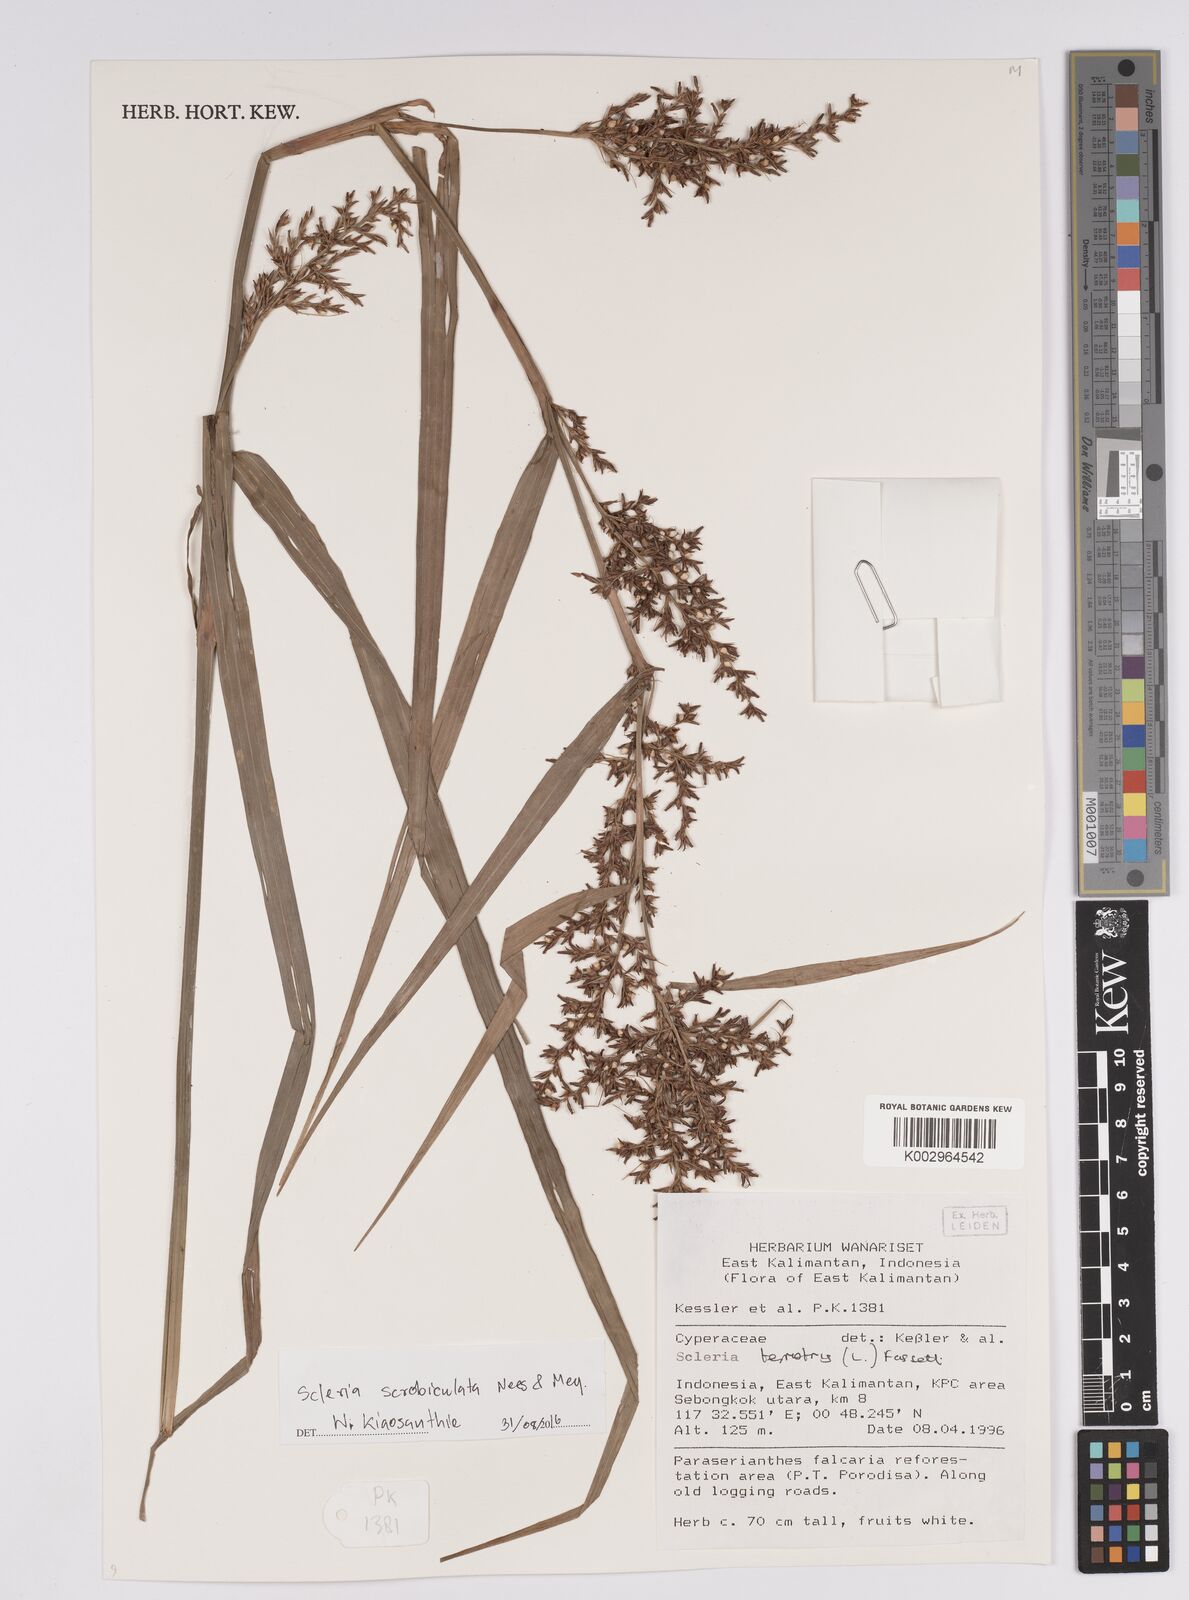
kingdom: Plantae
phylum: Tracheophyta
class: Liliopsida
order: Poales
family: Cyperaceae
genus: Scleria
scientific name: Scleria scrobiculata
